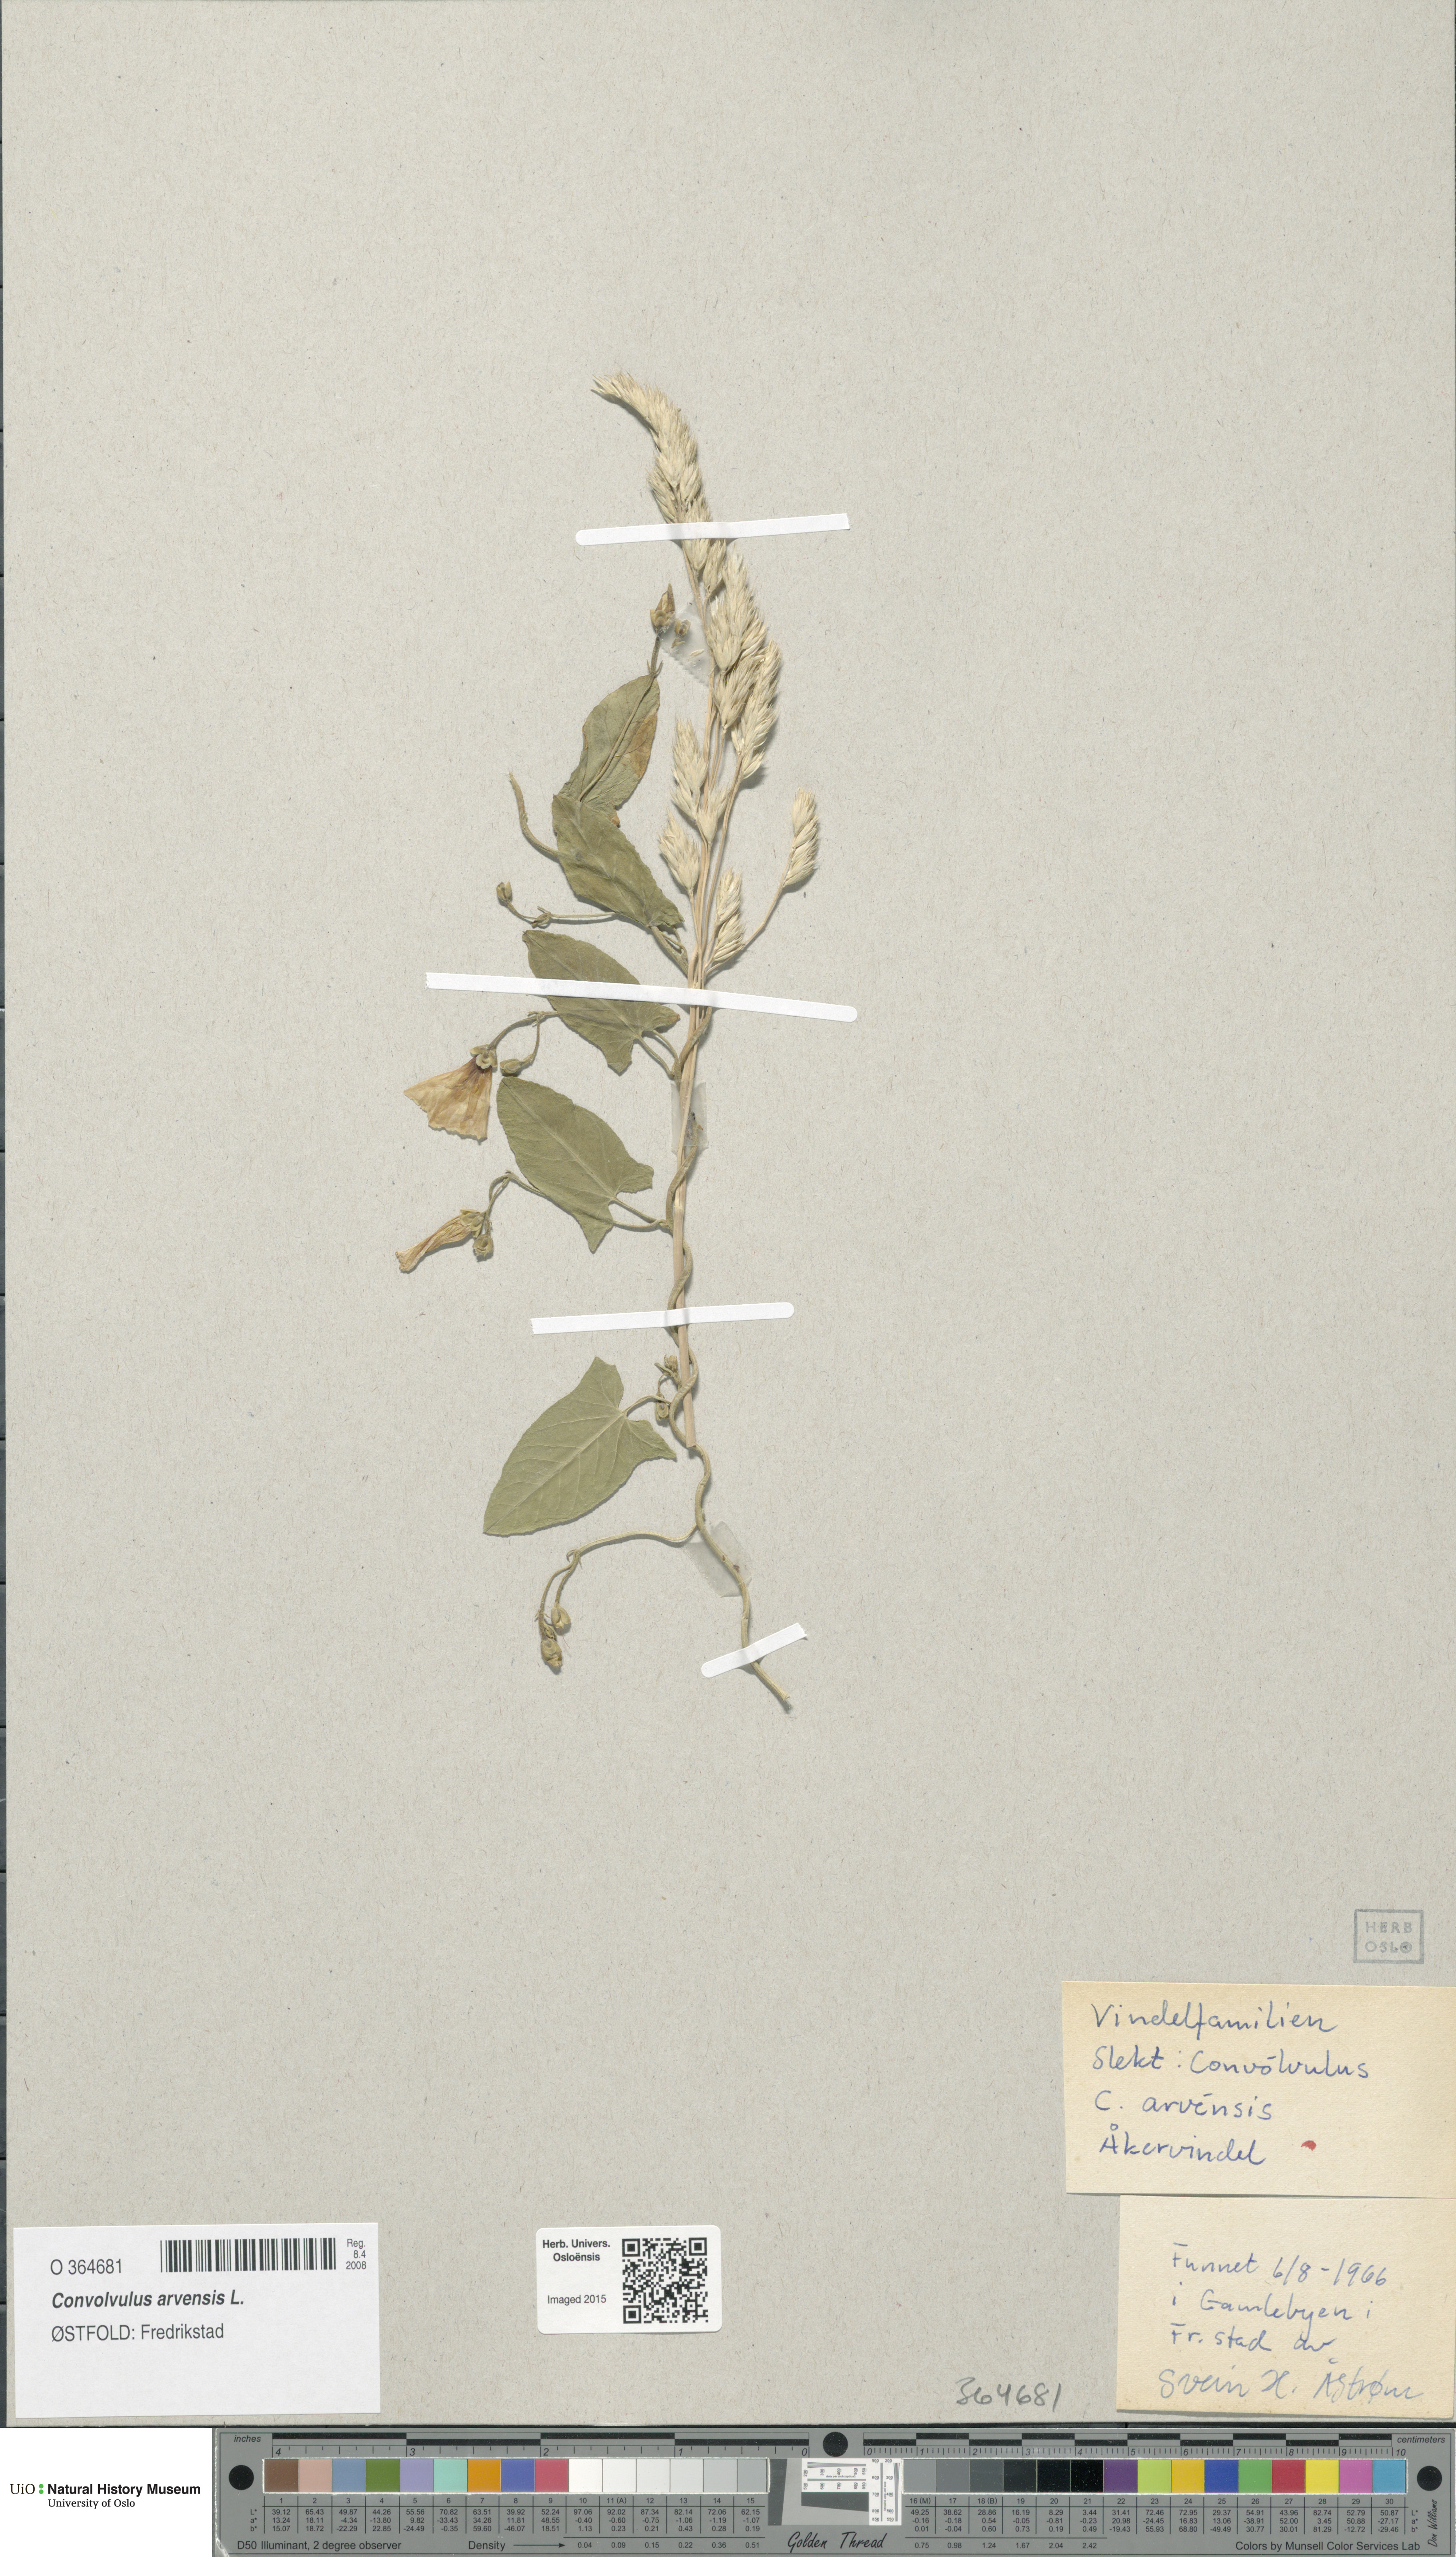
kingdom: Plantae
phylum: Tracheophyta
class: Magnoliopsida
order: Solanales
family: Convolvulaceae
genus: Convolvulus
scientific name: Convolvulus arvensis
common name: Field bindweed
